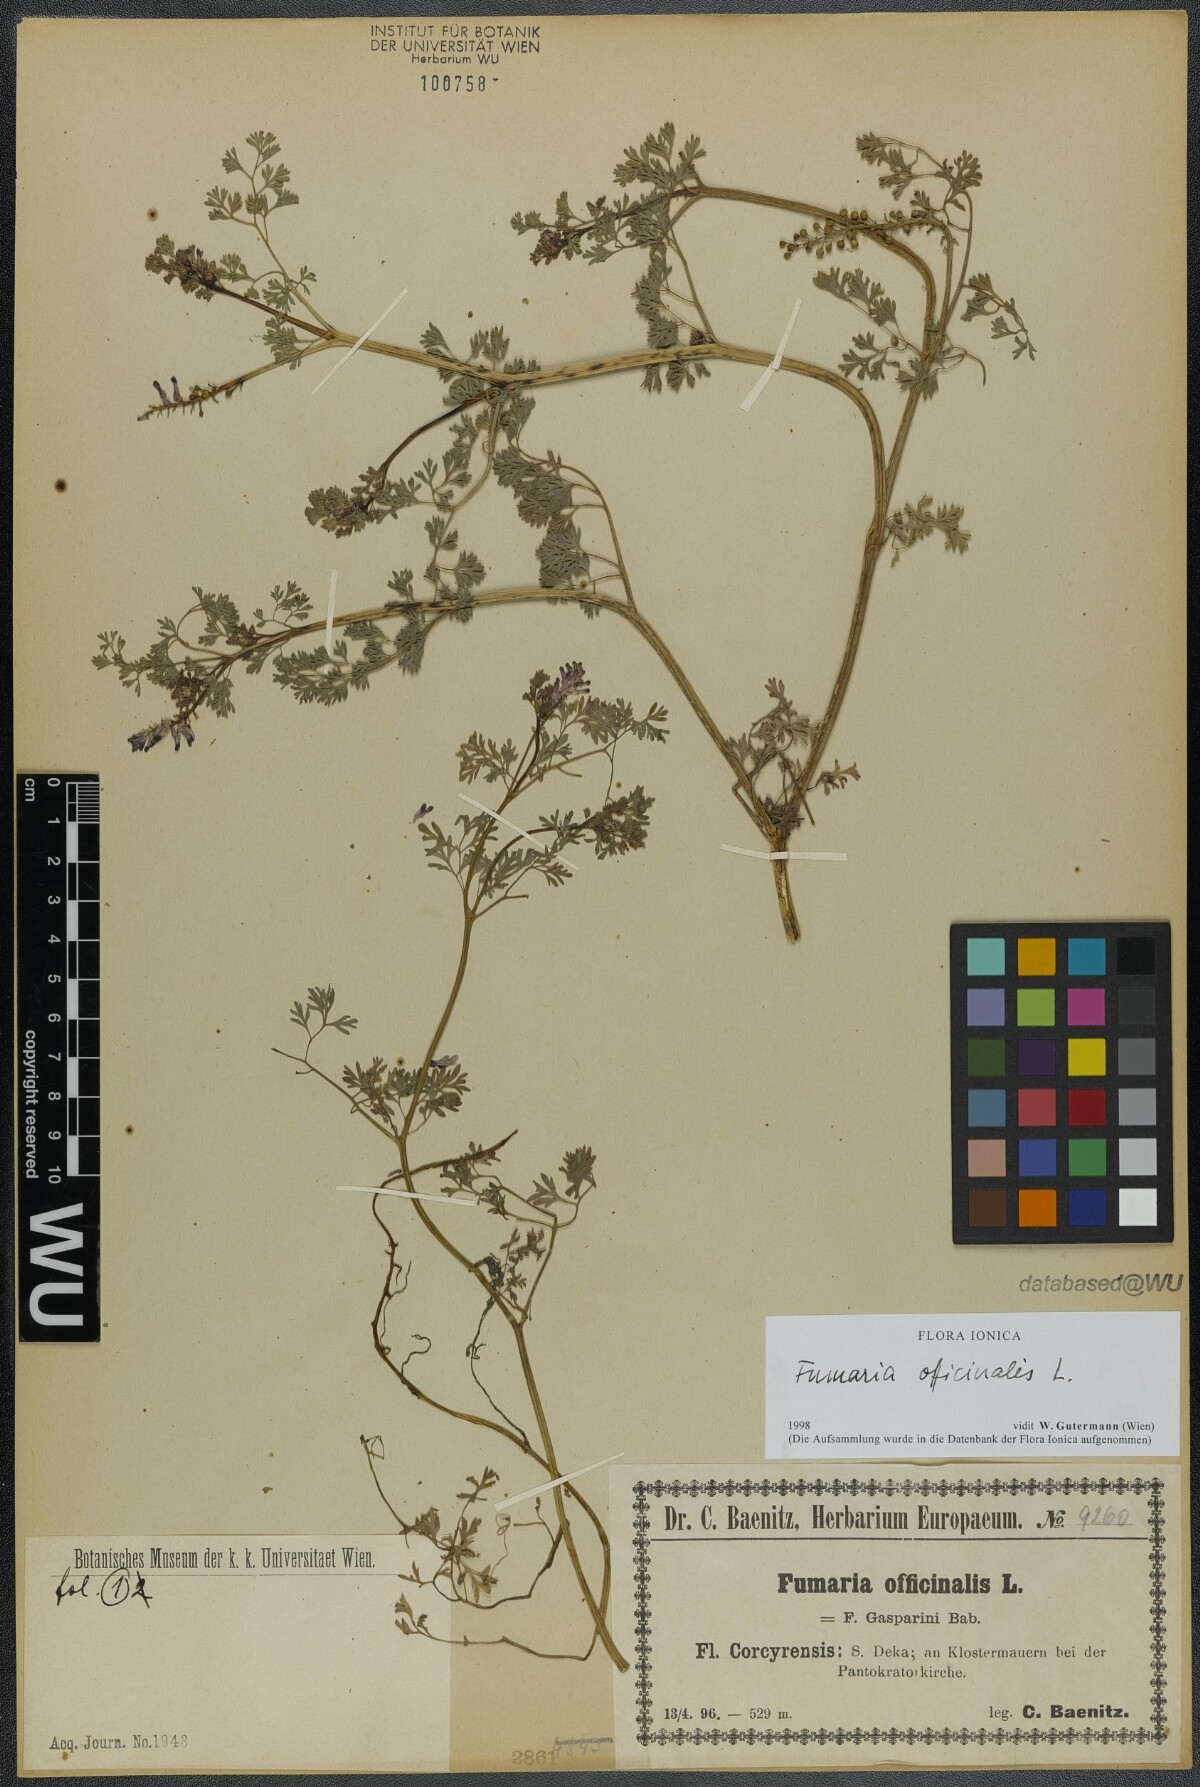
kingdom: Plantae
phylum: Tracheophyta
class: Magnoliopsida
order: Ranunculales
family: Papaveraceae
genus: Fumaria
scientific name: Fumaria officinalis
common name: Common fumitory
